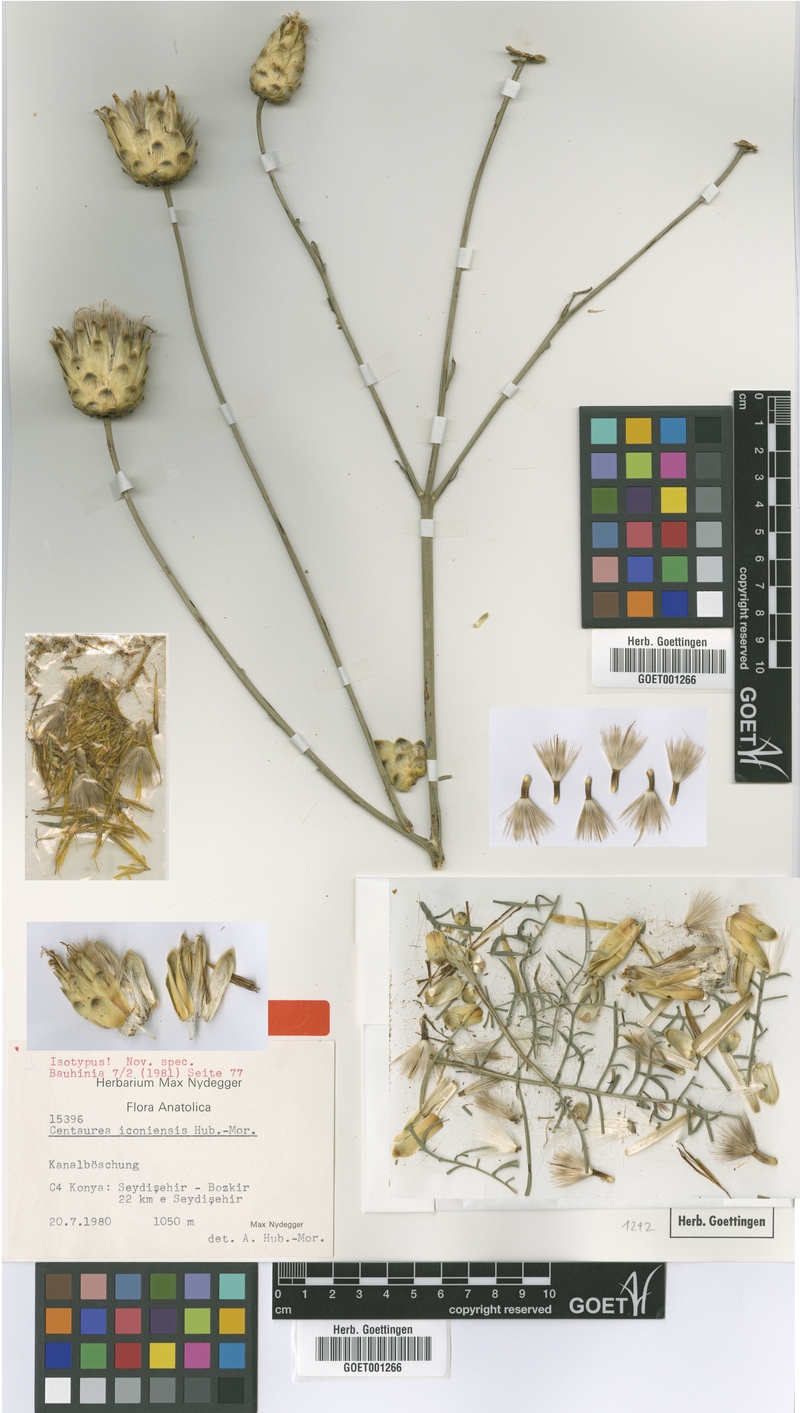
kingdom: Plantae
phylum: Tracheophyta
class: Magnoliopsida
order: Asterales
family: Asteraceae
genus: Rhaponticoides
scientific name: Rhaponticoides iconiensis
